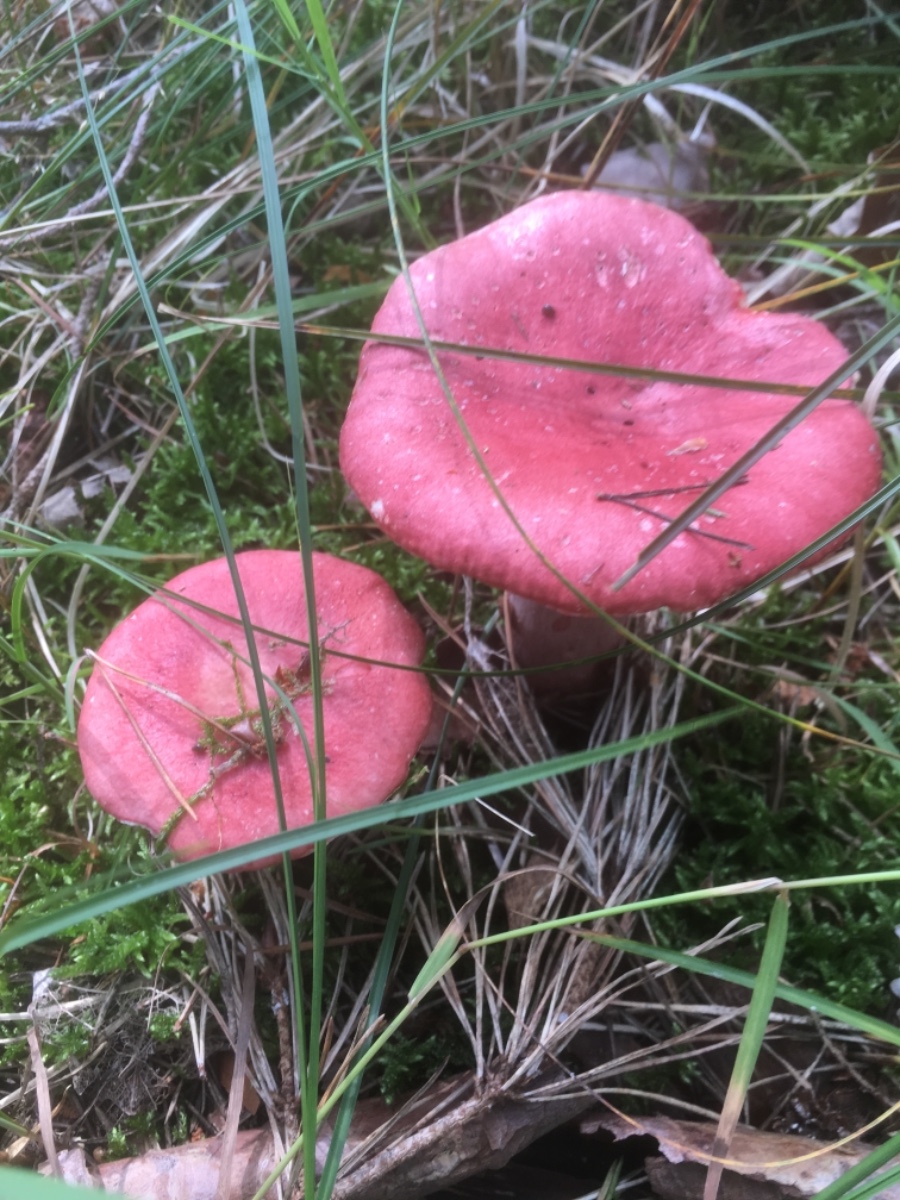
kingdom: Fungi
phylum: Basidiomycota
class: Agaricomycetes
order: Russulales
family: Russulaceae
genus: Russula
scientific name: Russula sanguinea
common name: blodrød skørhat
